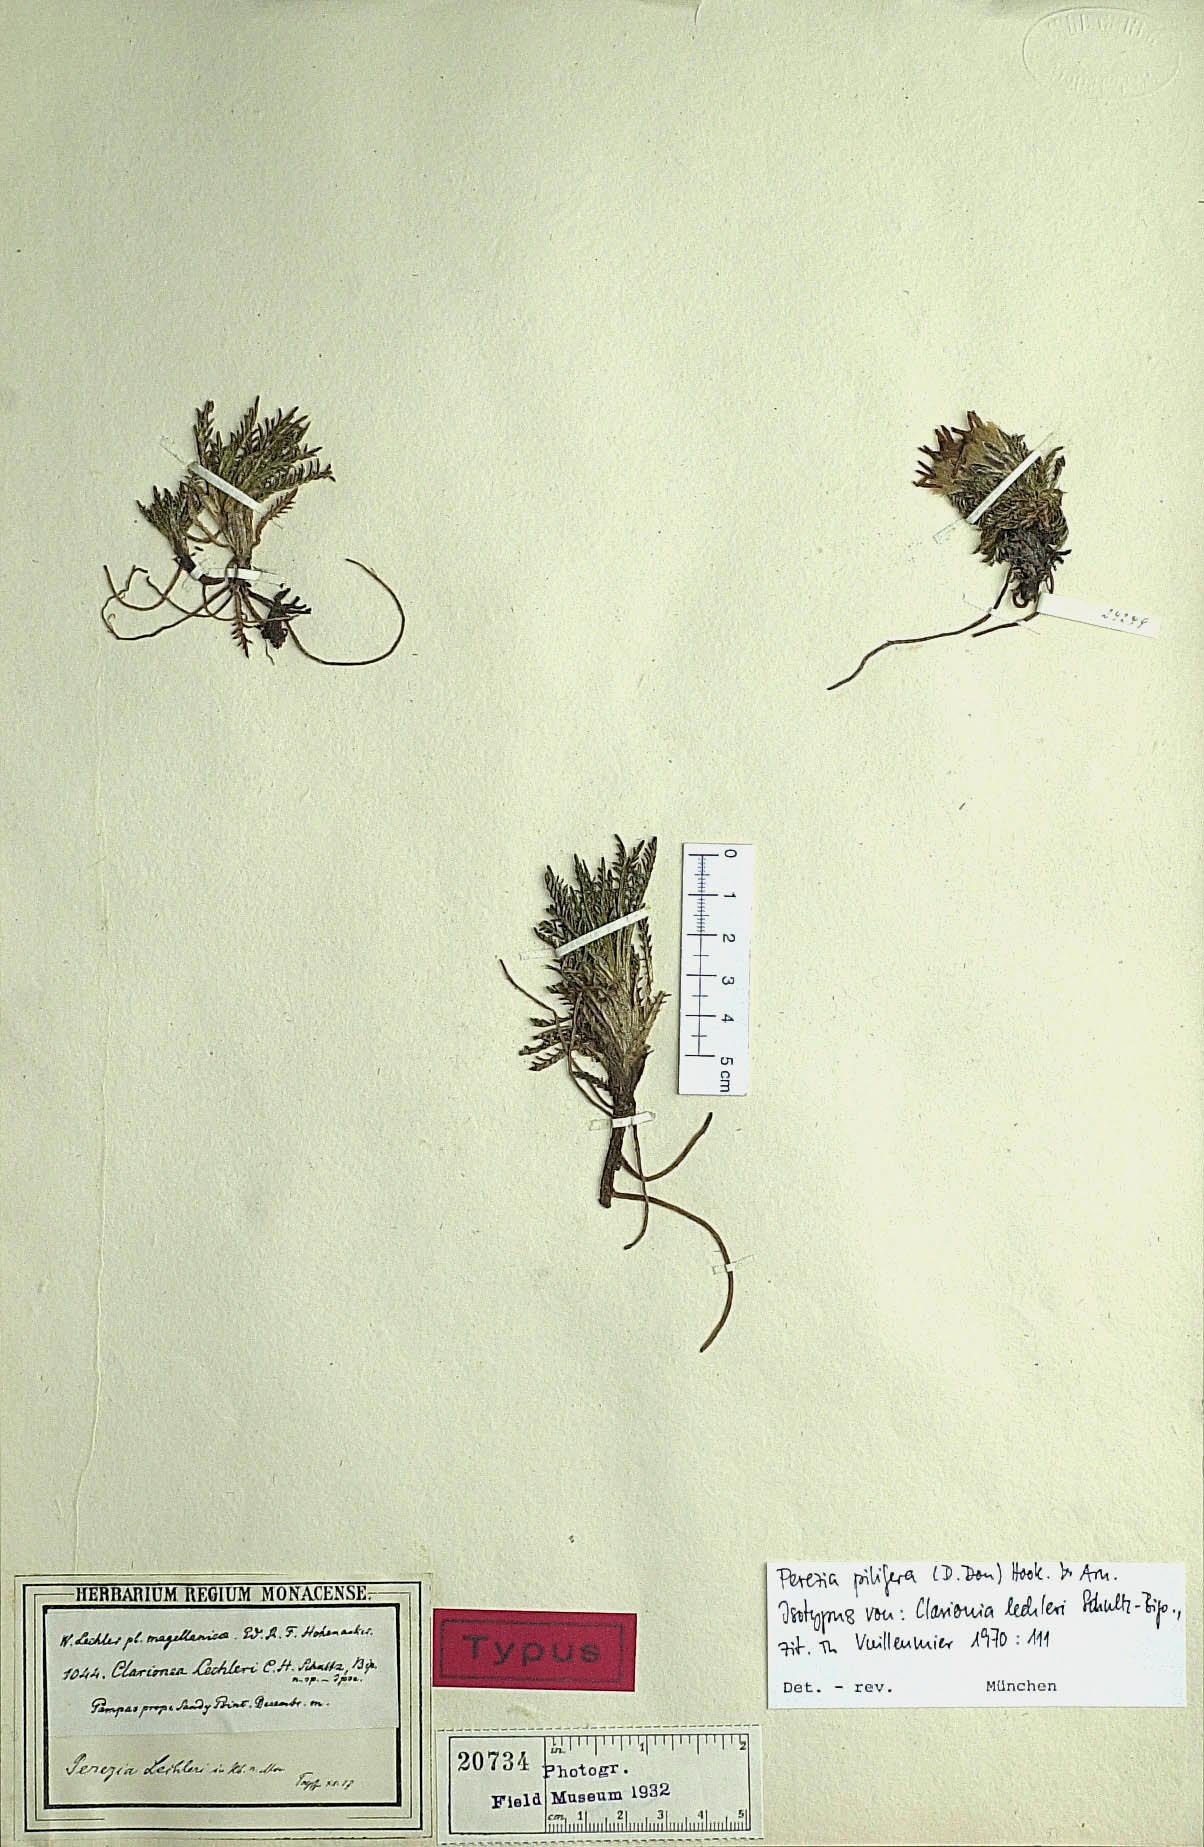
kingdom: Plantae
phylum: Tracheophyta
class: Magnoliopsida
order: Asterales
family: Asteraceae
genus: Perezia
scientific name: Perezia pilifera
